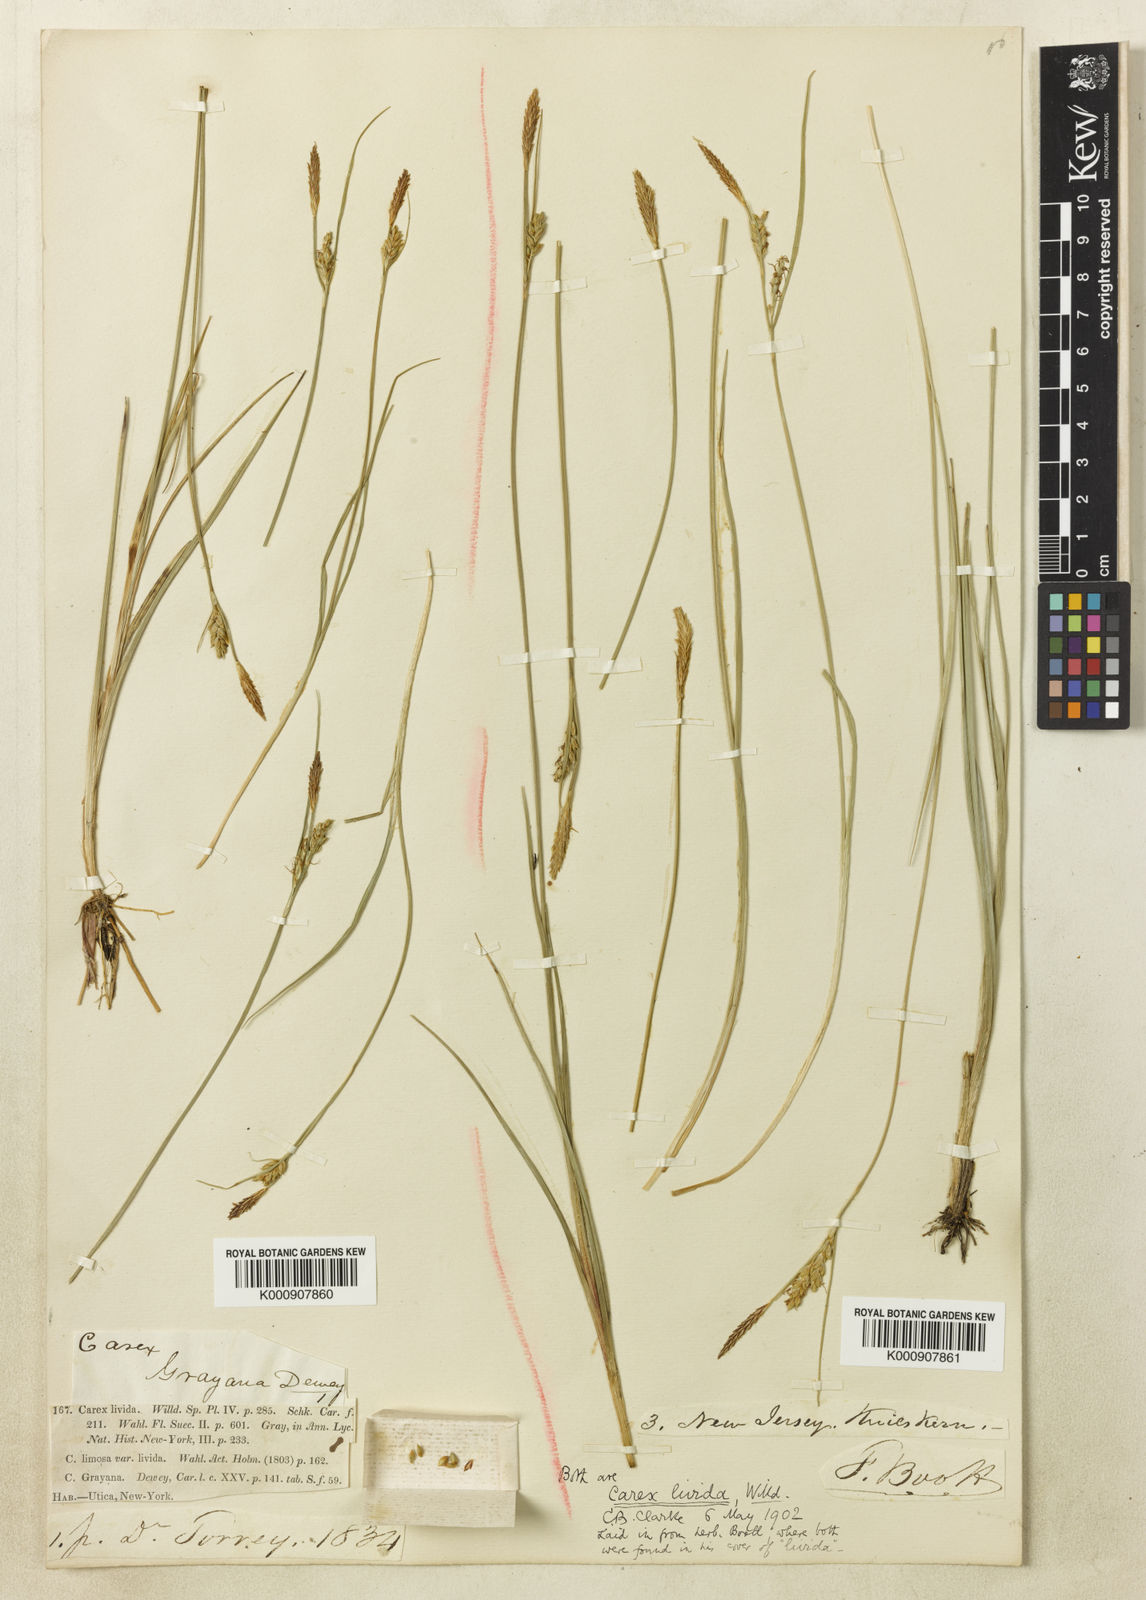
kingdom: Plantae
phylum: Tracheophyta
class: Liliopsida
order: Poales
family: Cyperaceae
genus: Carex
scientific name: Carex livida
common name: Livid sedge
